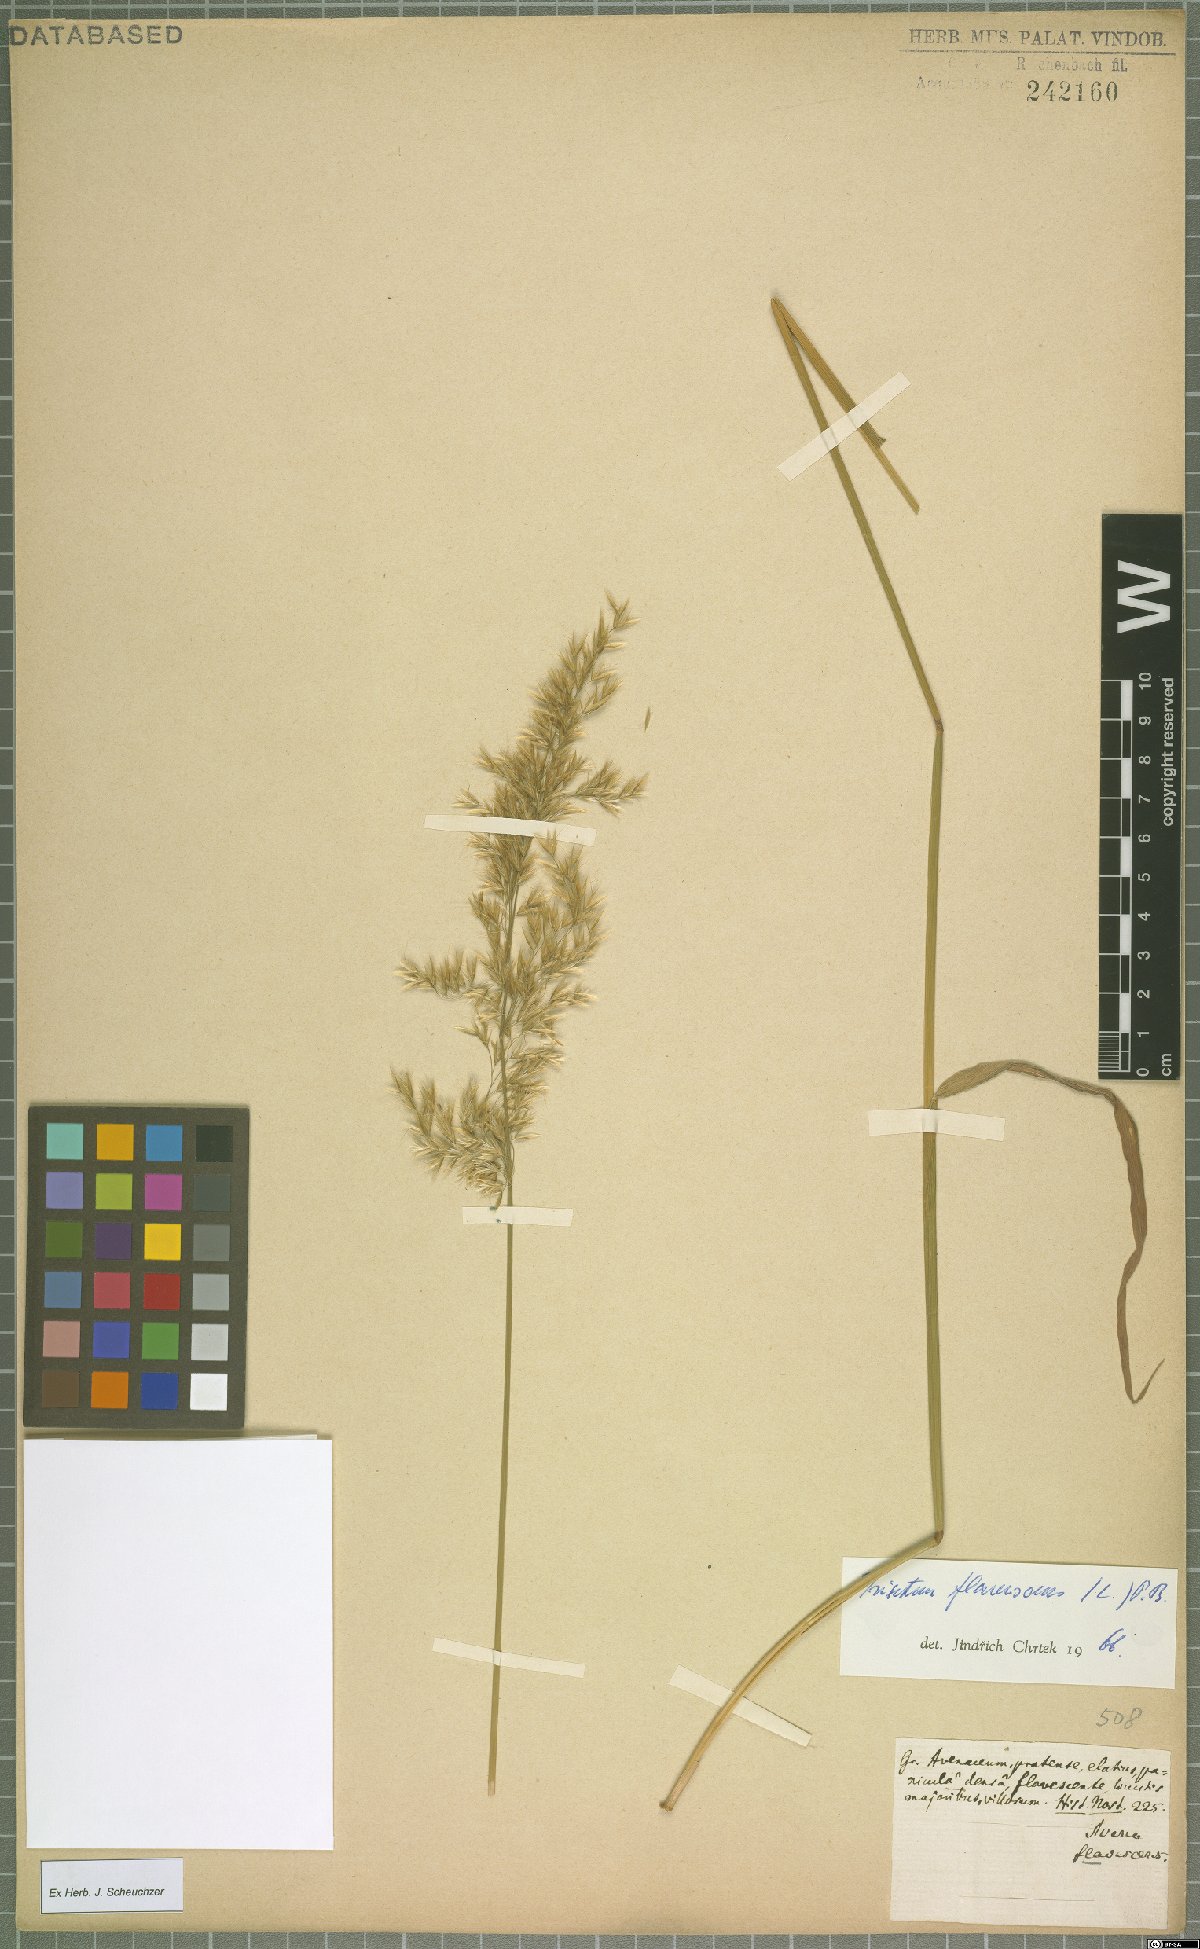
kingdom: Plantae
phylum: Tracheophyta
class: Liliopsida
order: Poales
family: Poaceae
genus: Trisetum
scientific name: Trisetum flavescens
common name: Yellow oat-grass
